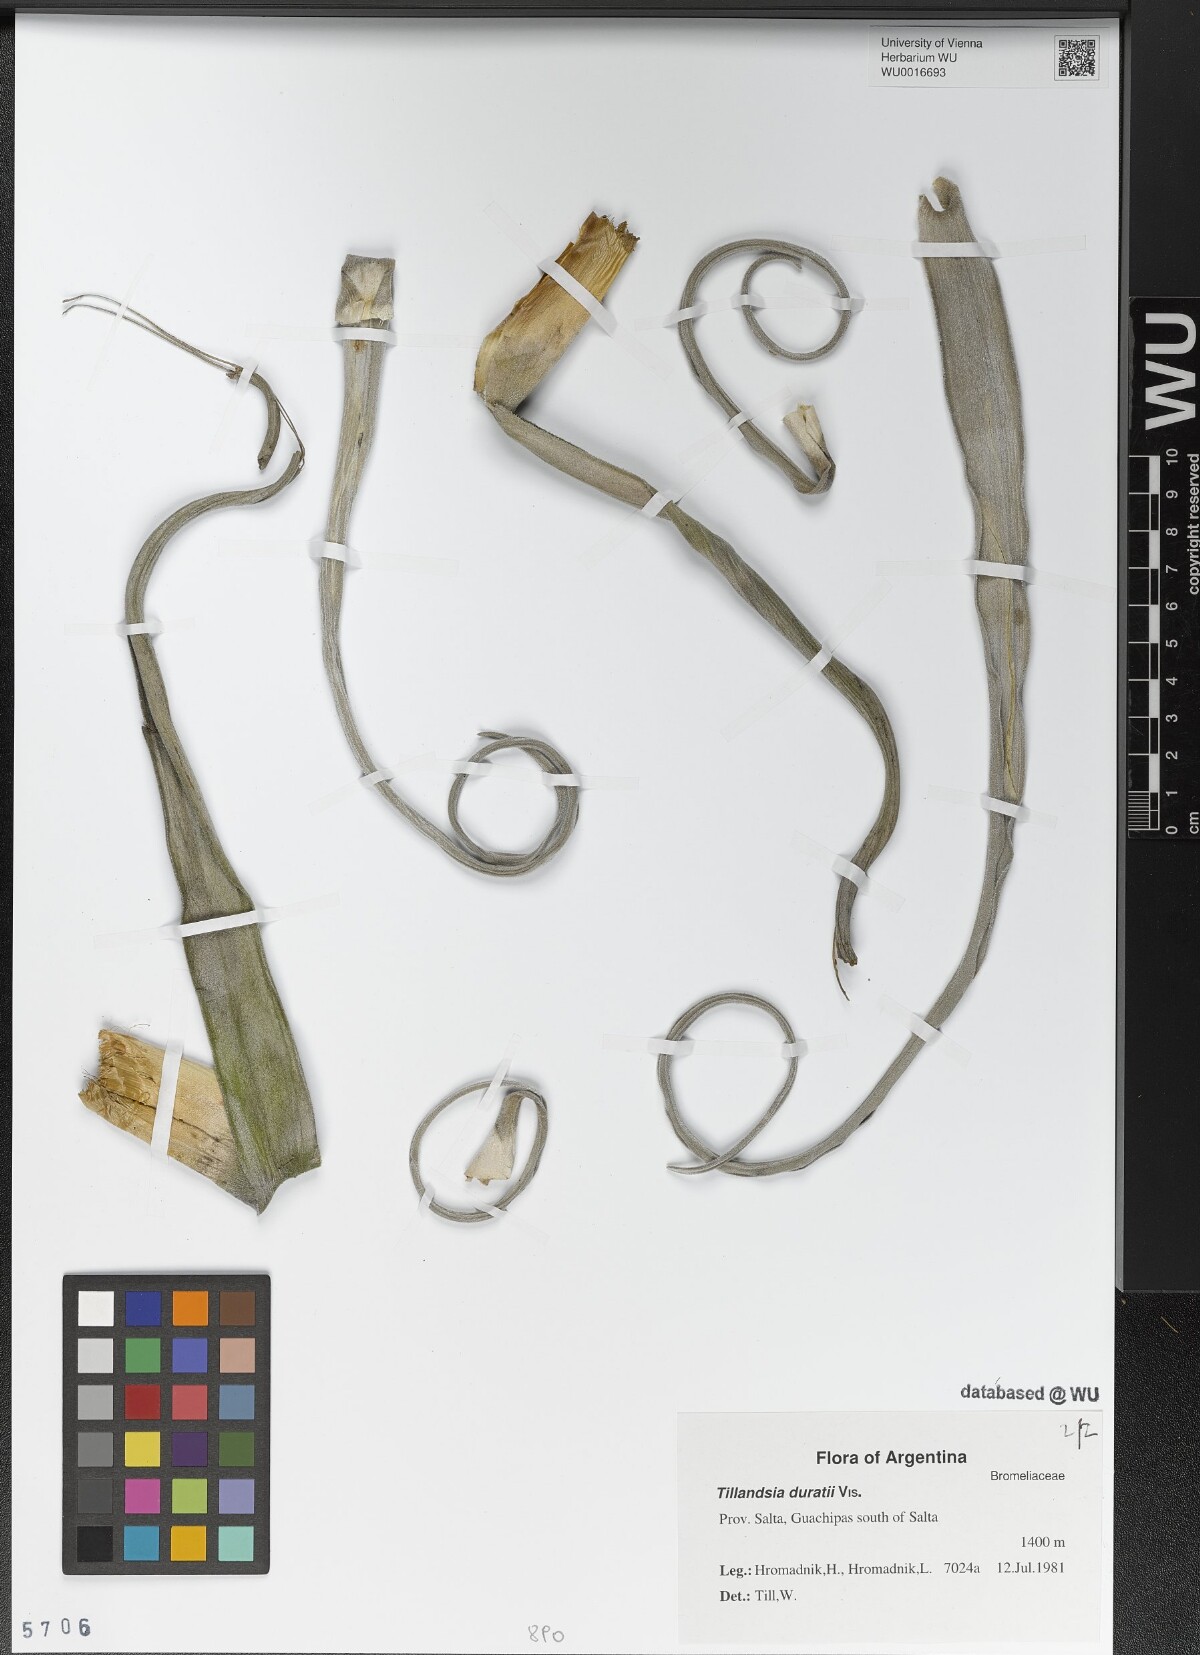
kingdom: Plantae
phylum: Tracheophyta
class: Liliopsida
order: Poales
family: Bromeliaceae
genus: Tillandsia
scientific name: Tillandsia duratii
